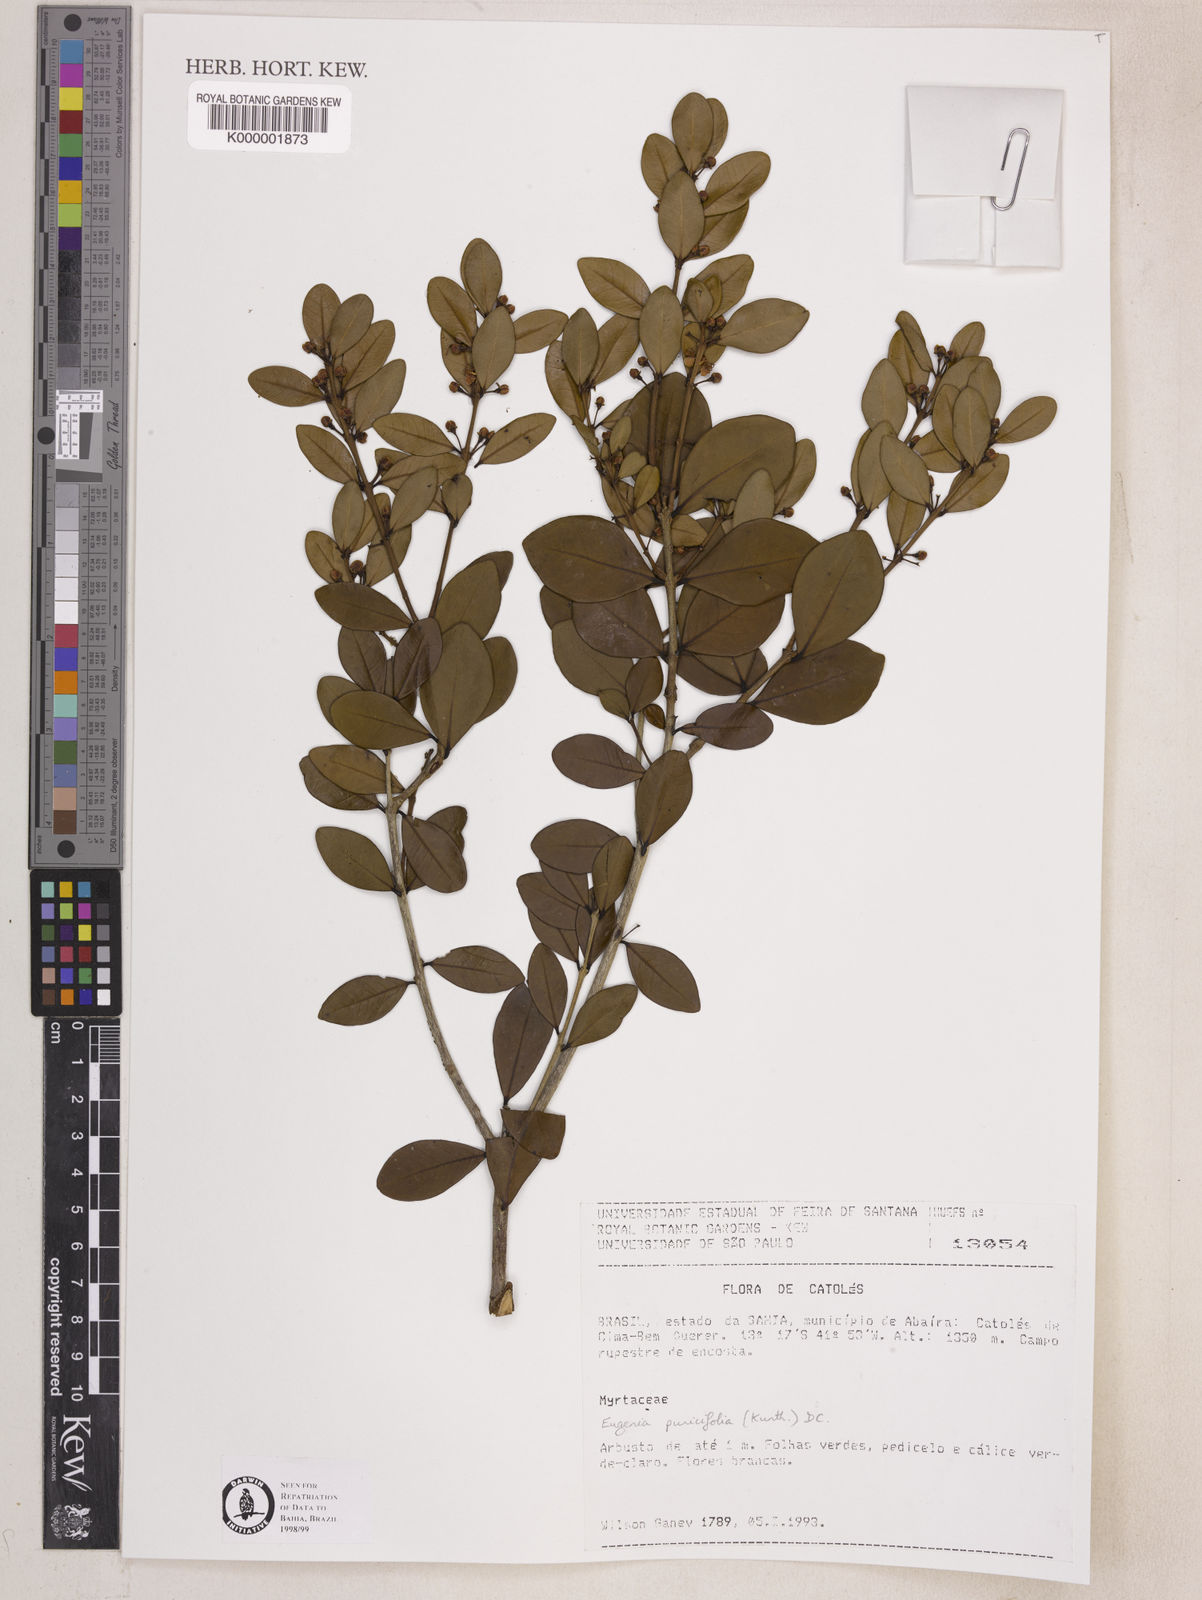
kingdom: Plantae
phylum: Tracheophyta
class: Magnoliopsida
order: Myrtales
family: Myrtaceae
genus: Eugenia
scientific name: Eugenia punicifolia
